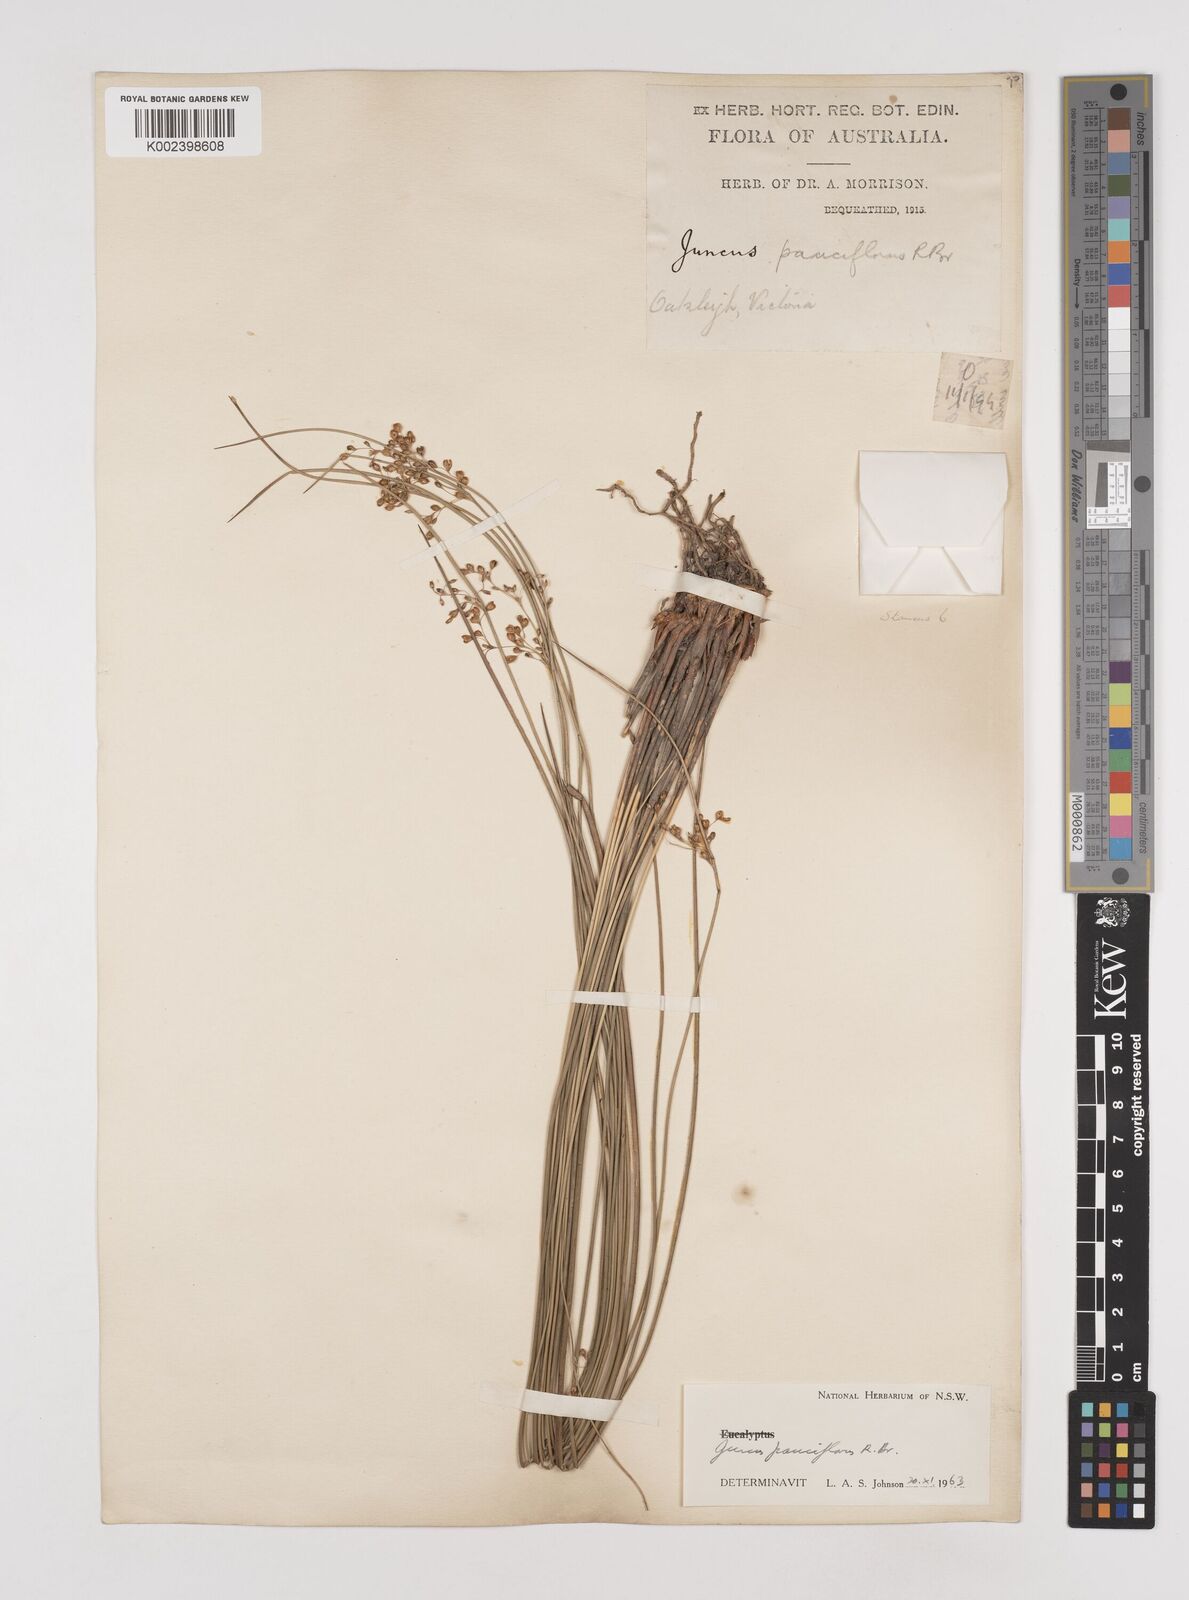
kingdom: Plantae
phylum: Tracheophyta
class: Liliopsida
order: Poales
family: Juncaceae
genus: Juncus
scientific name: Juncus pauciflorus
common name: Loose-flowered rush
